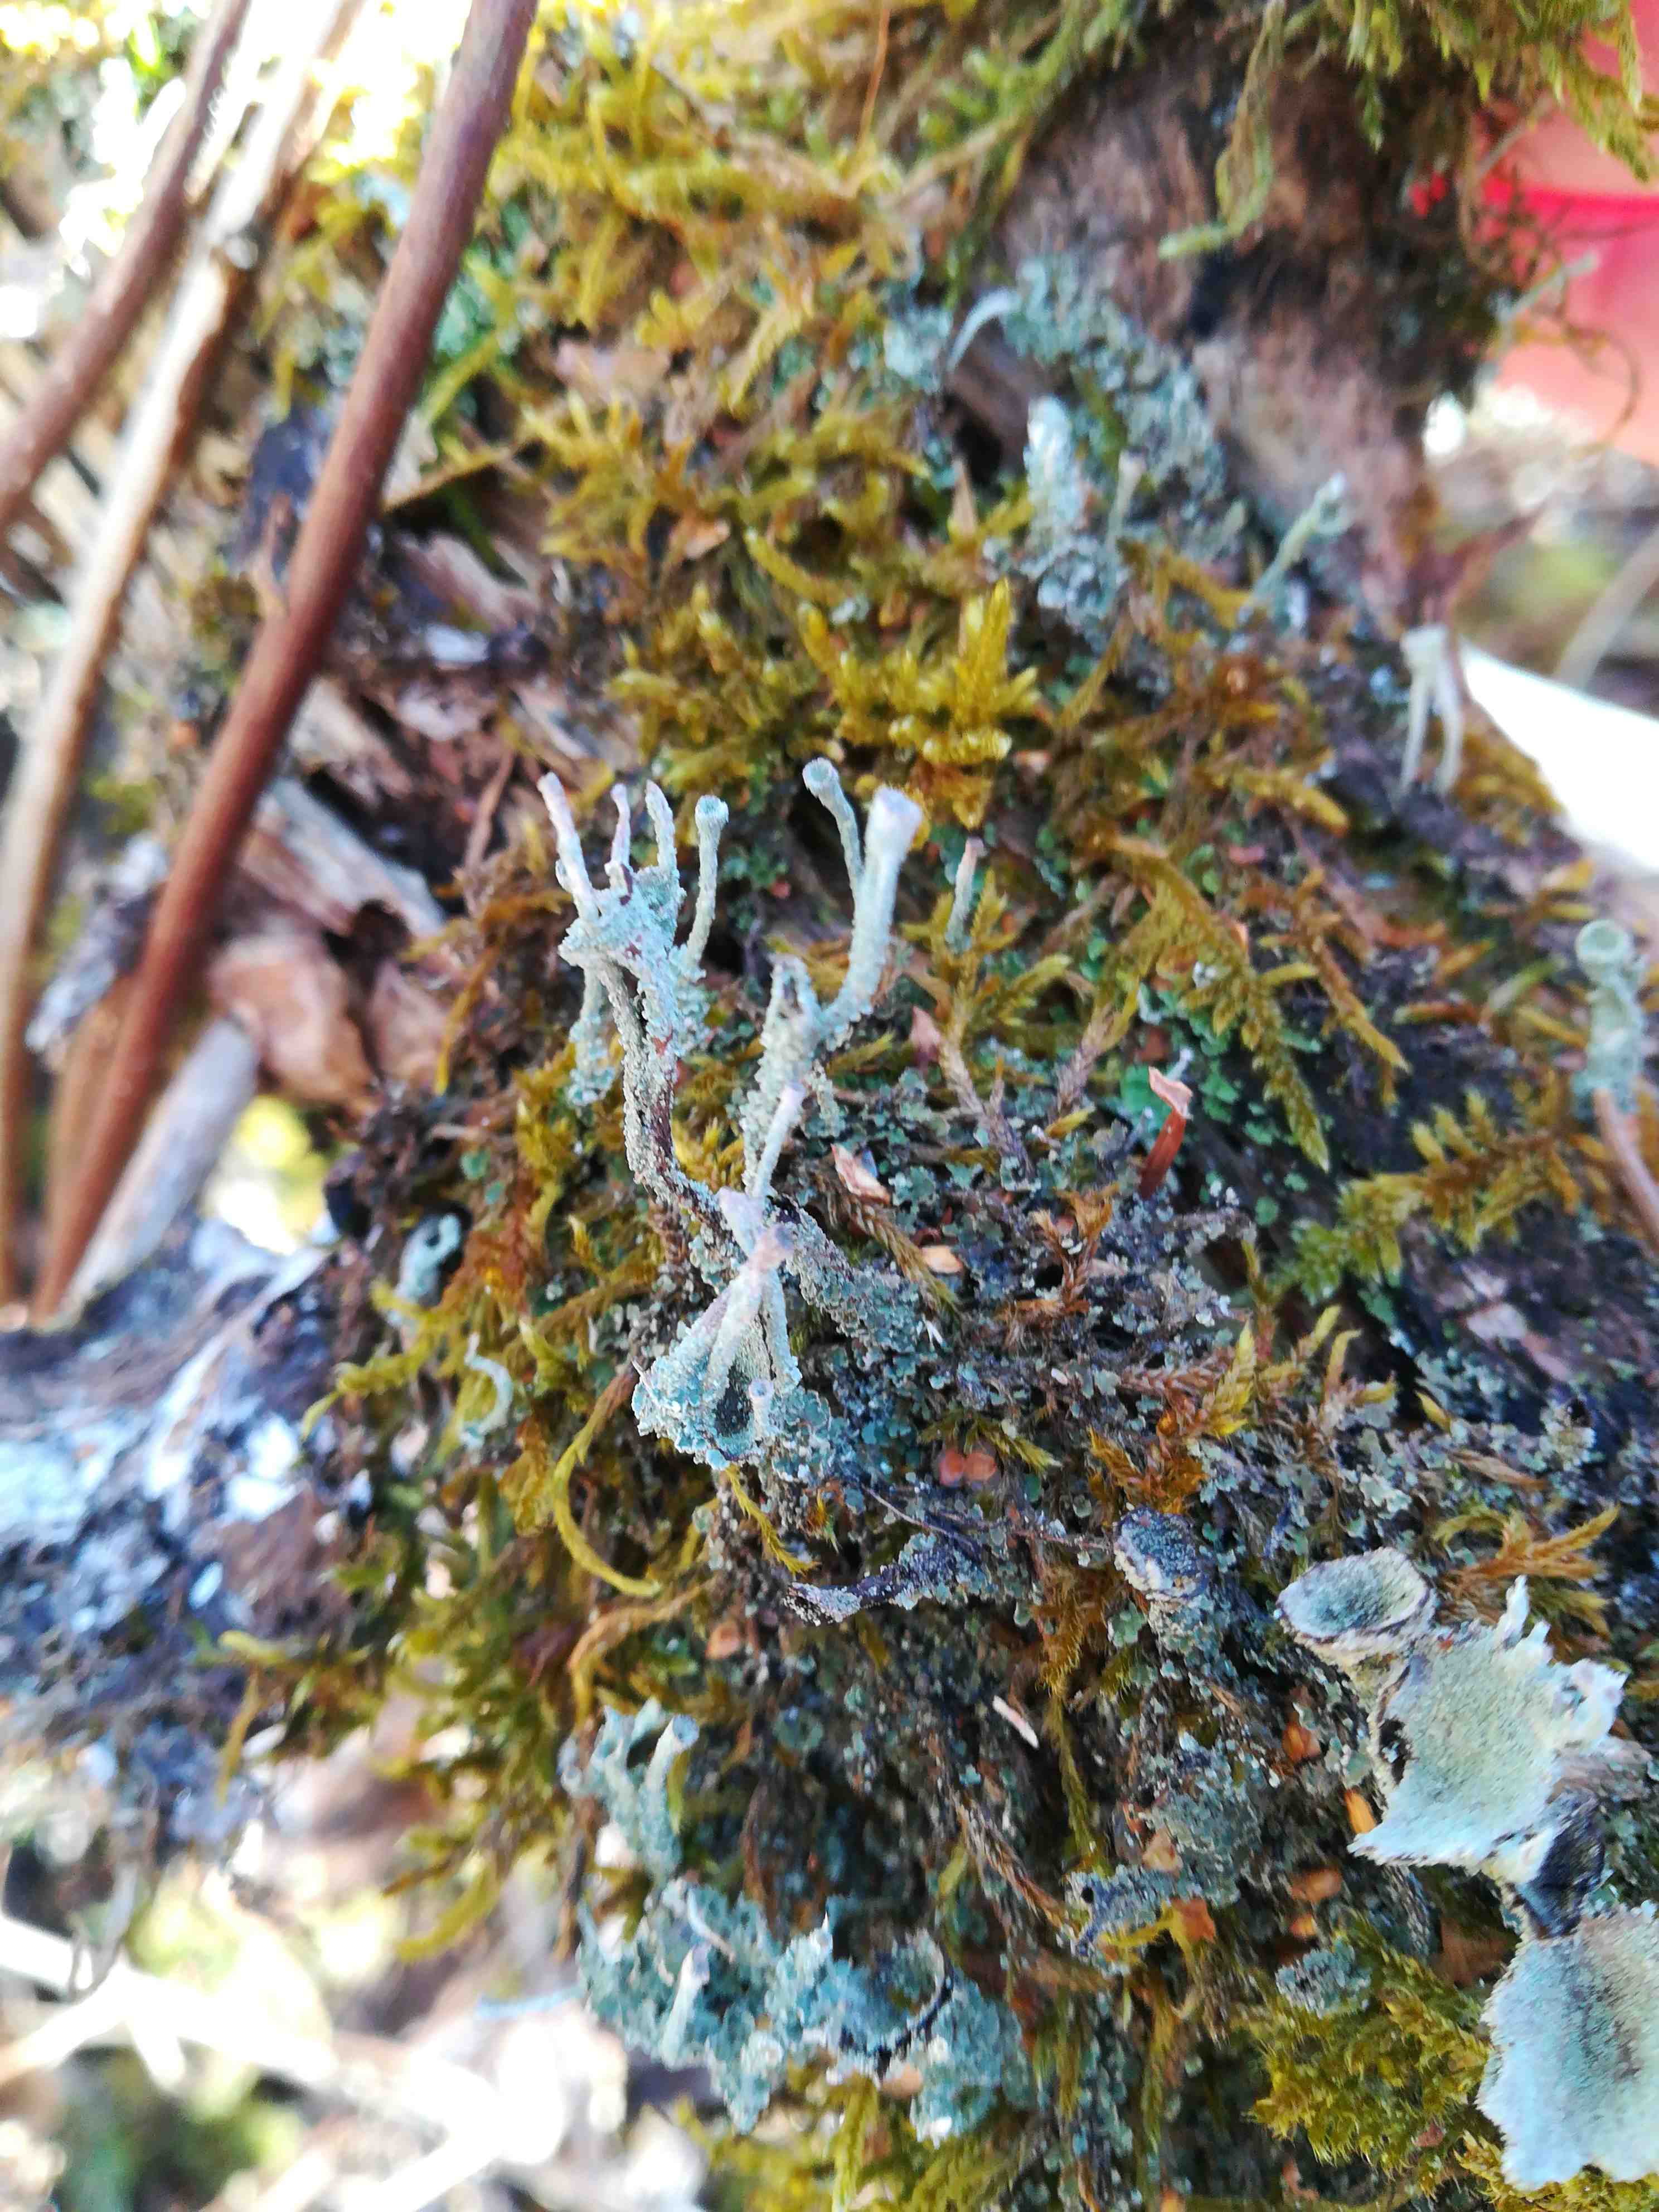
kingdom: Fungi
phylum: Ascomycota
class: Lecanoromycetes
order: Lecanorales
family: Cladoniaceae
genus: Cladonia
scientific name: Cladonia
